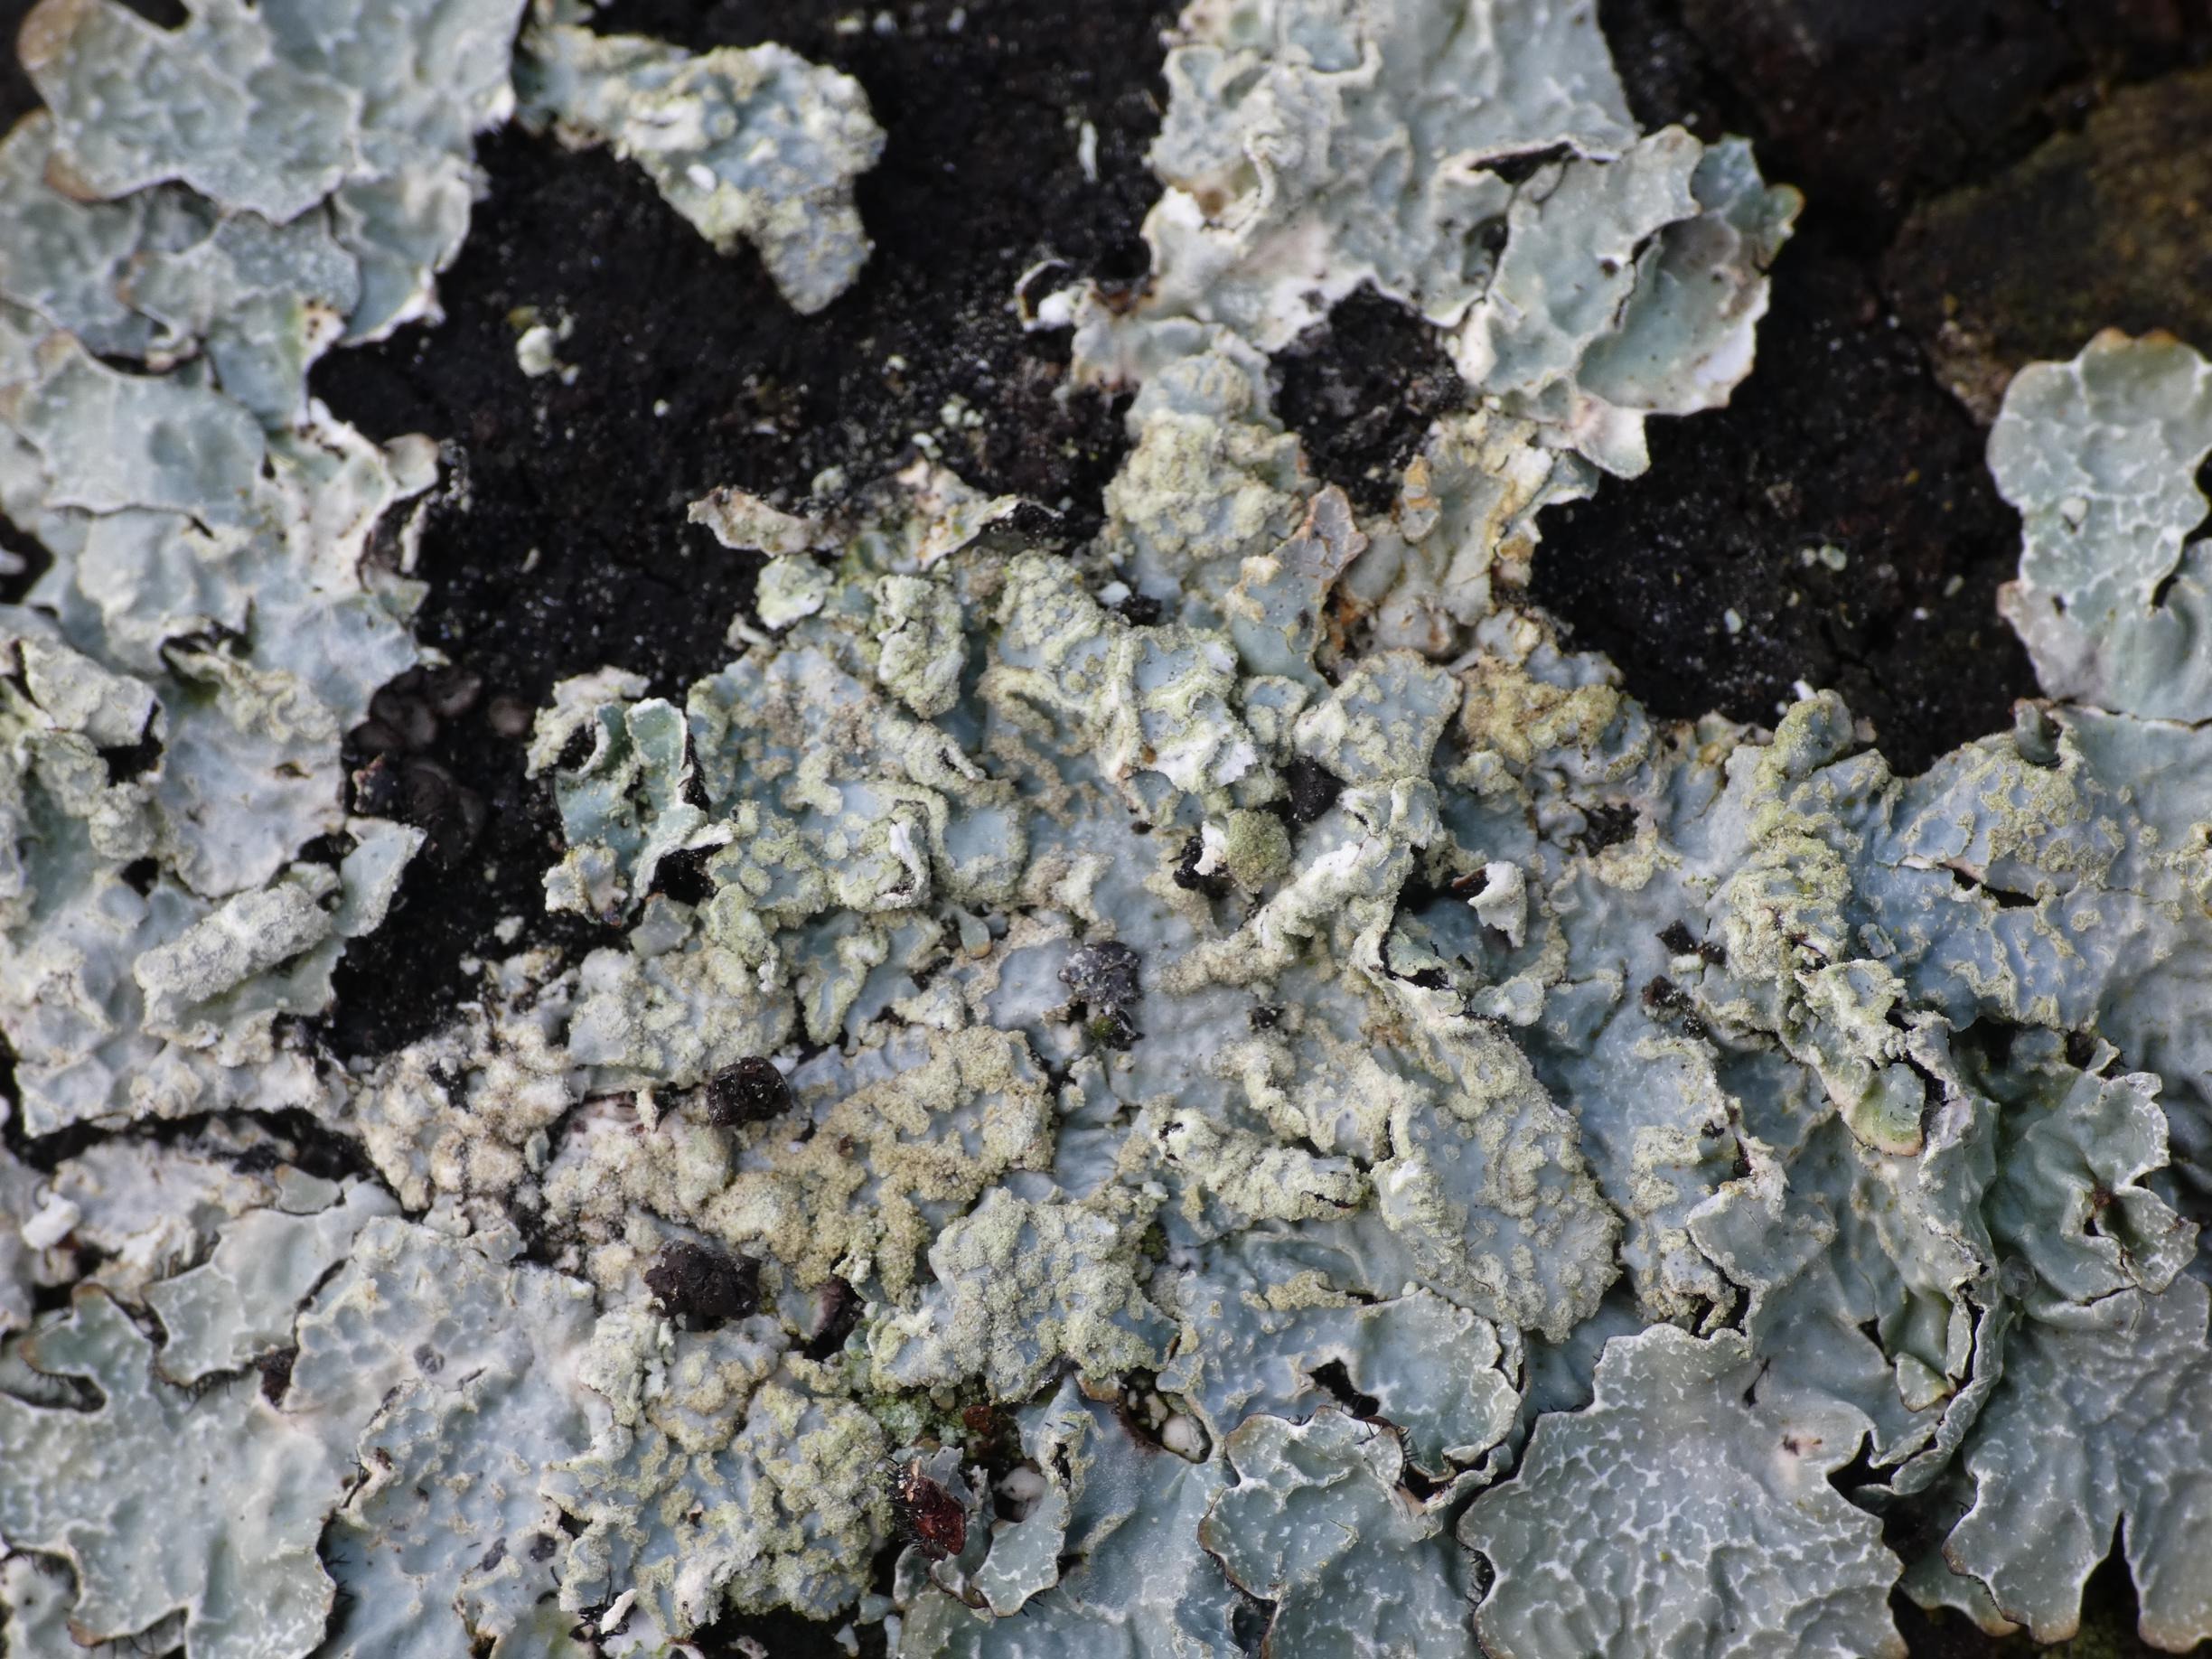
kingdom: Fungi
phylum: Ascomycota
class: Lecanoromycetes
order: Lecanorales
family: Parmeliaceae
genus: Parmelia
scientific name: Parmelia sulcata
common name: Rynket skållav
